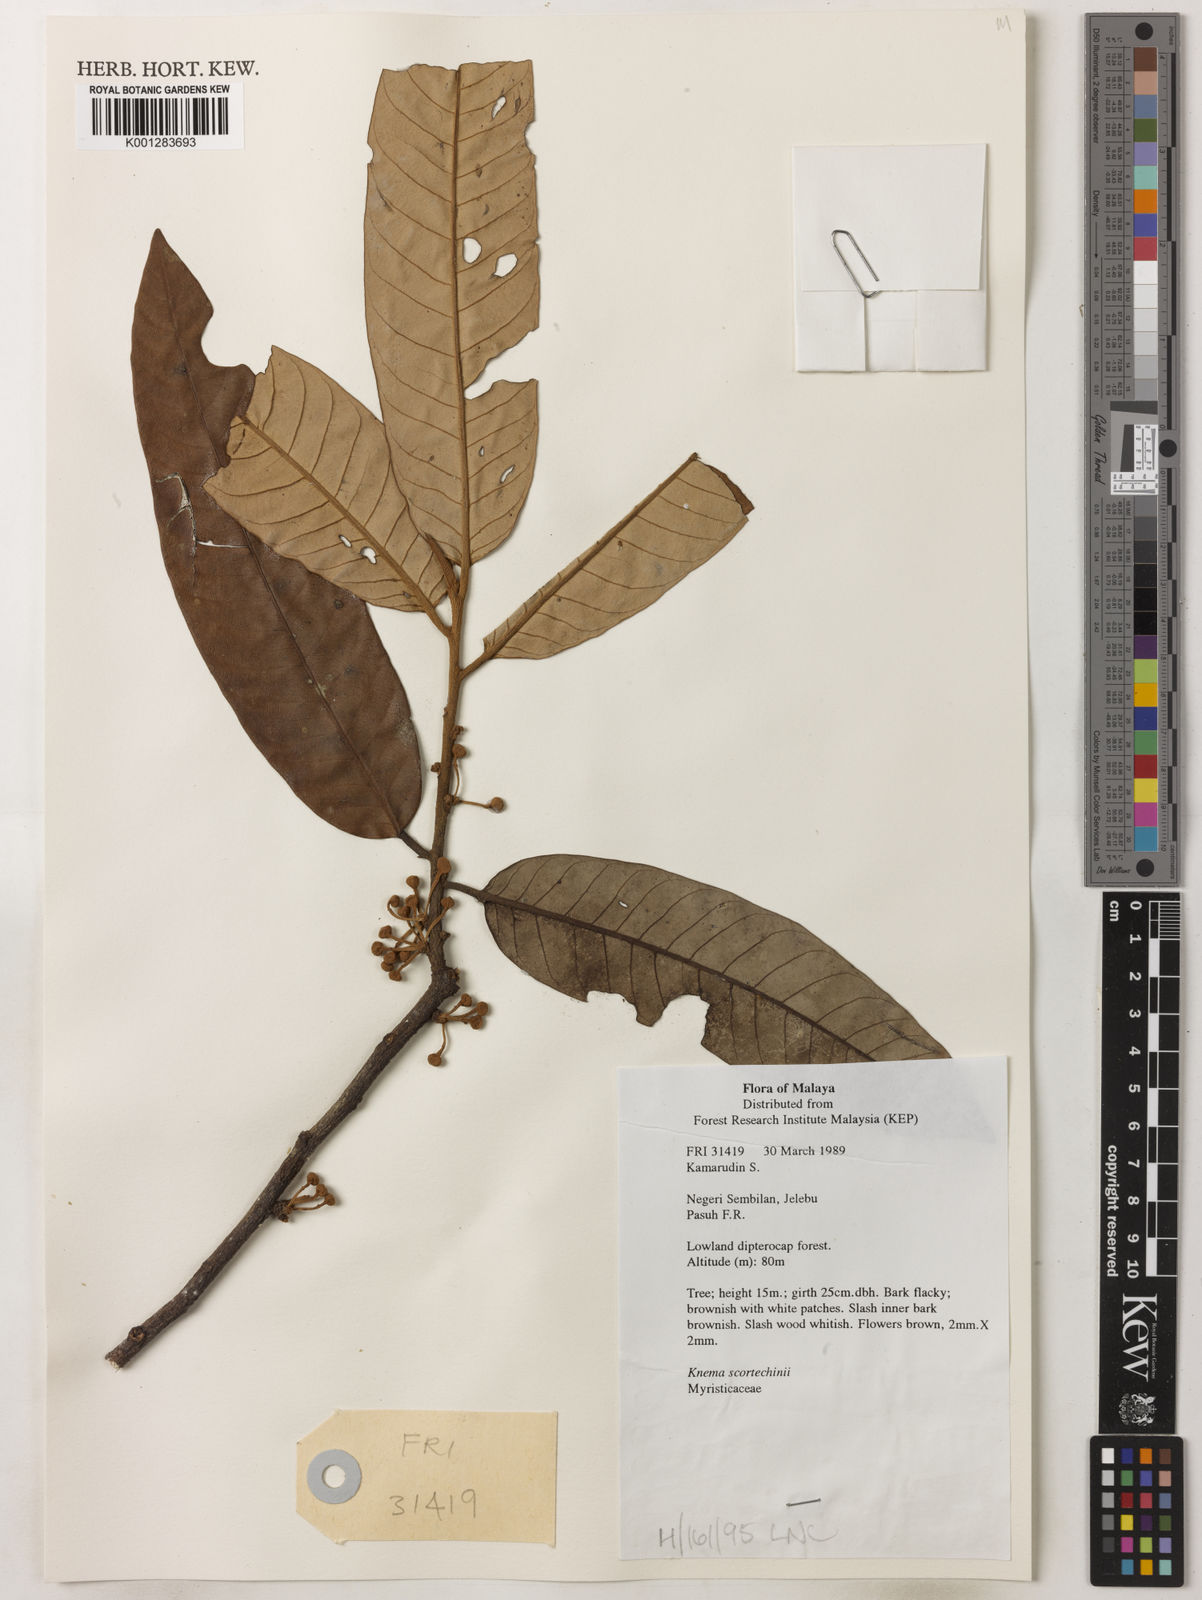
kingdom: Plantae
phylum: Tracheophyta
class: Magnoliopsida
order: Magnoliales
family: Myristicaceae
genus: Knema
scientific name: Knema scortechinii
